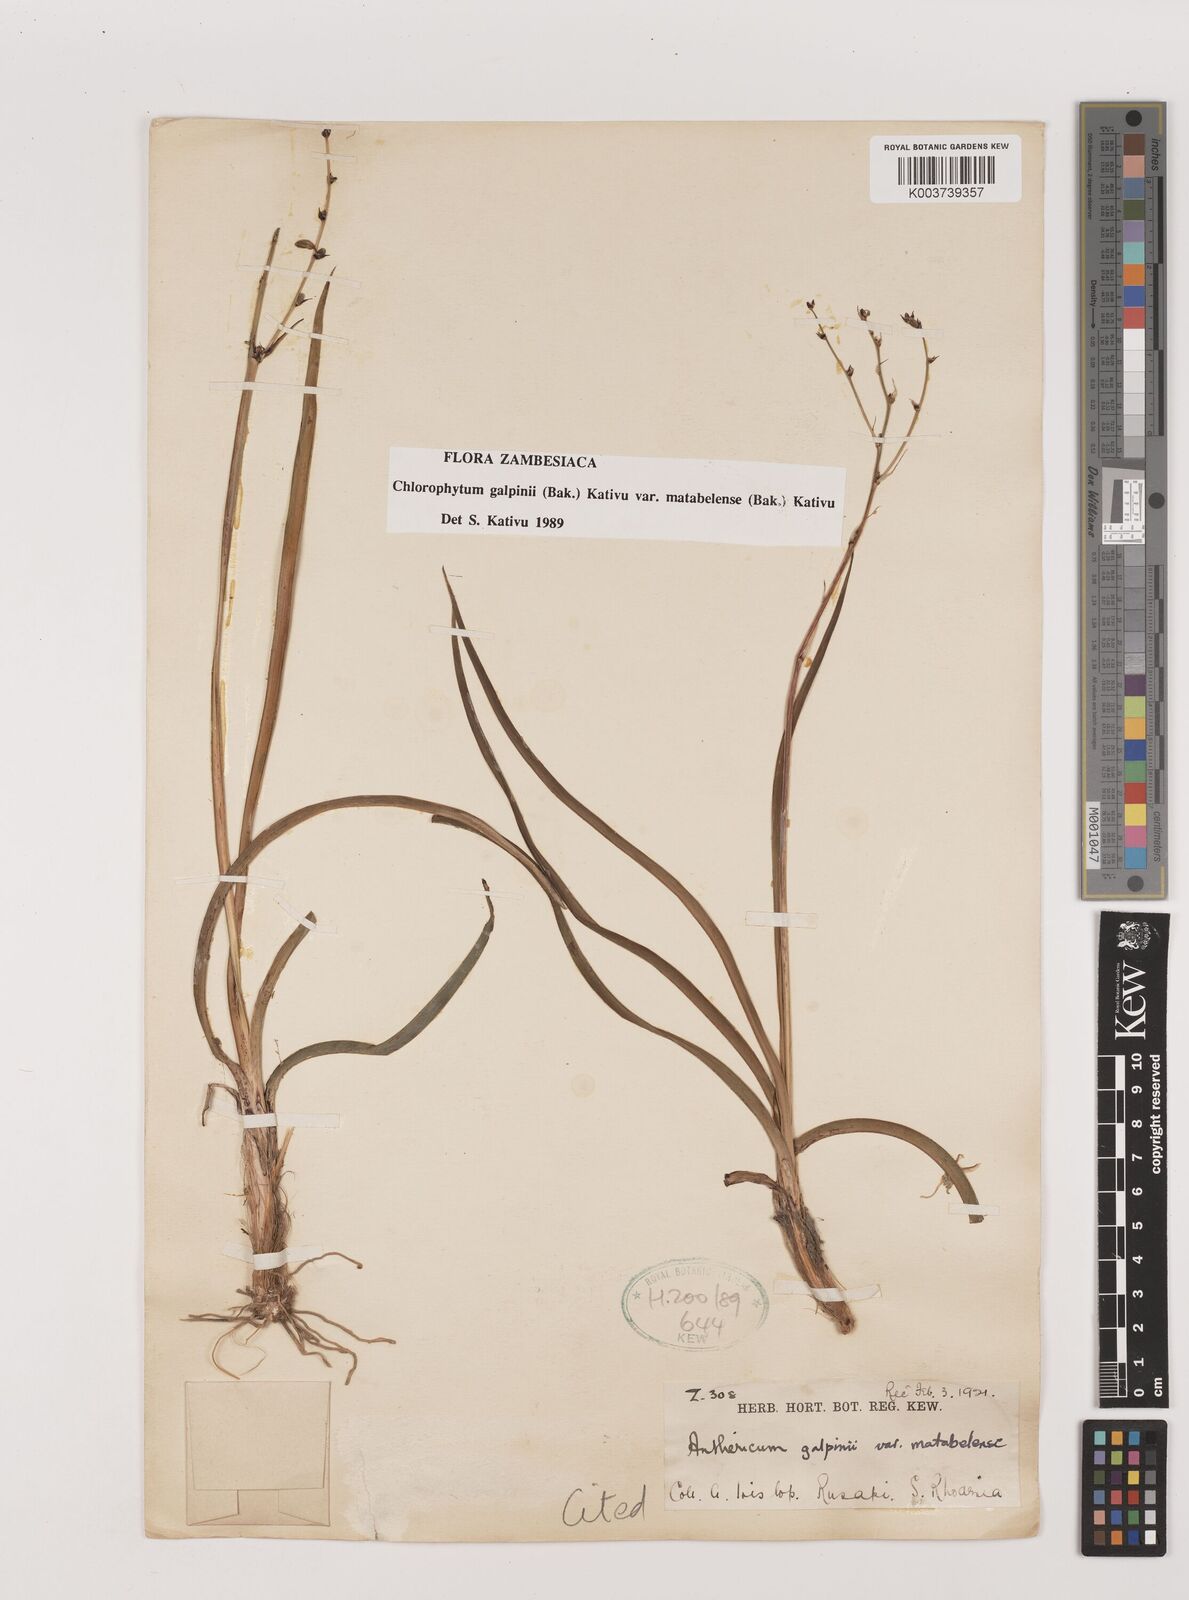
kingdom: Plantae
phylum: Tracheophyta
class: Liliopsida
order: Asparagales
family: Asparagaceae
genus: Chlorophytum
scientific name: Chlorophytum galpinii
